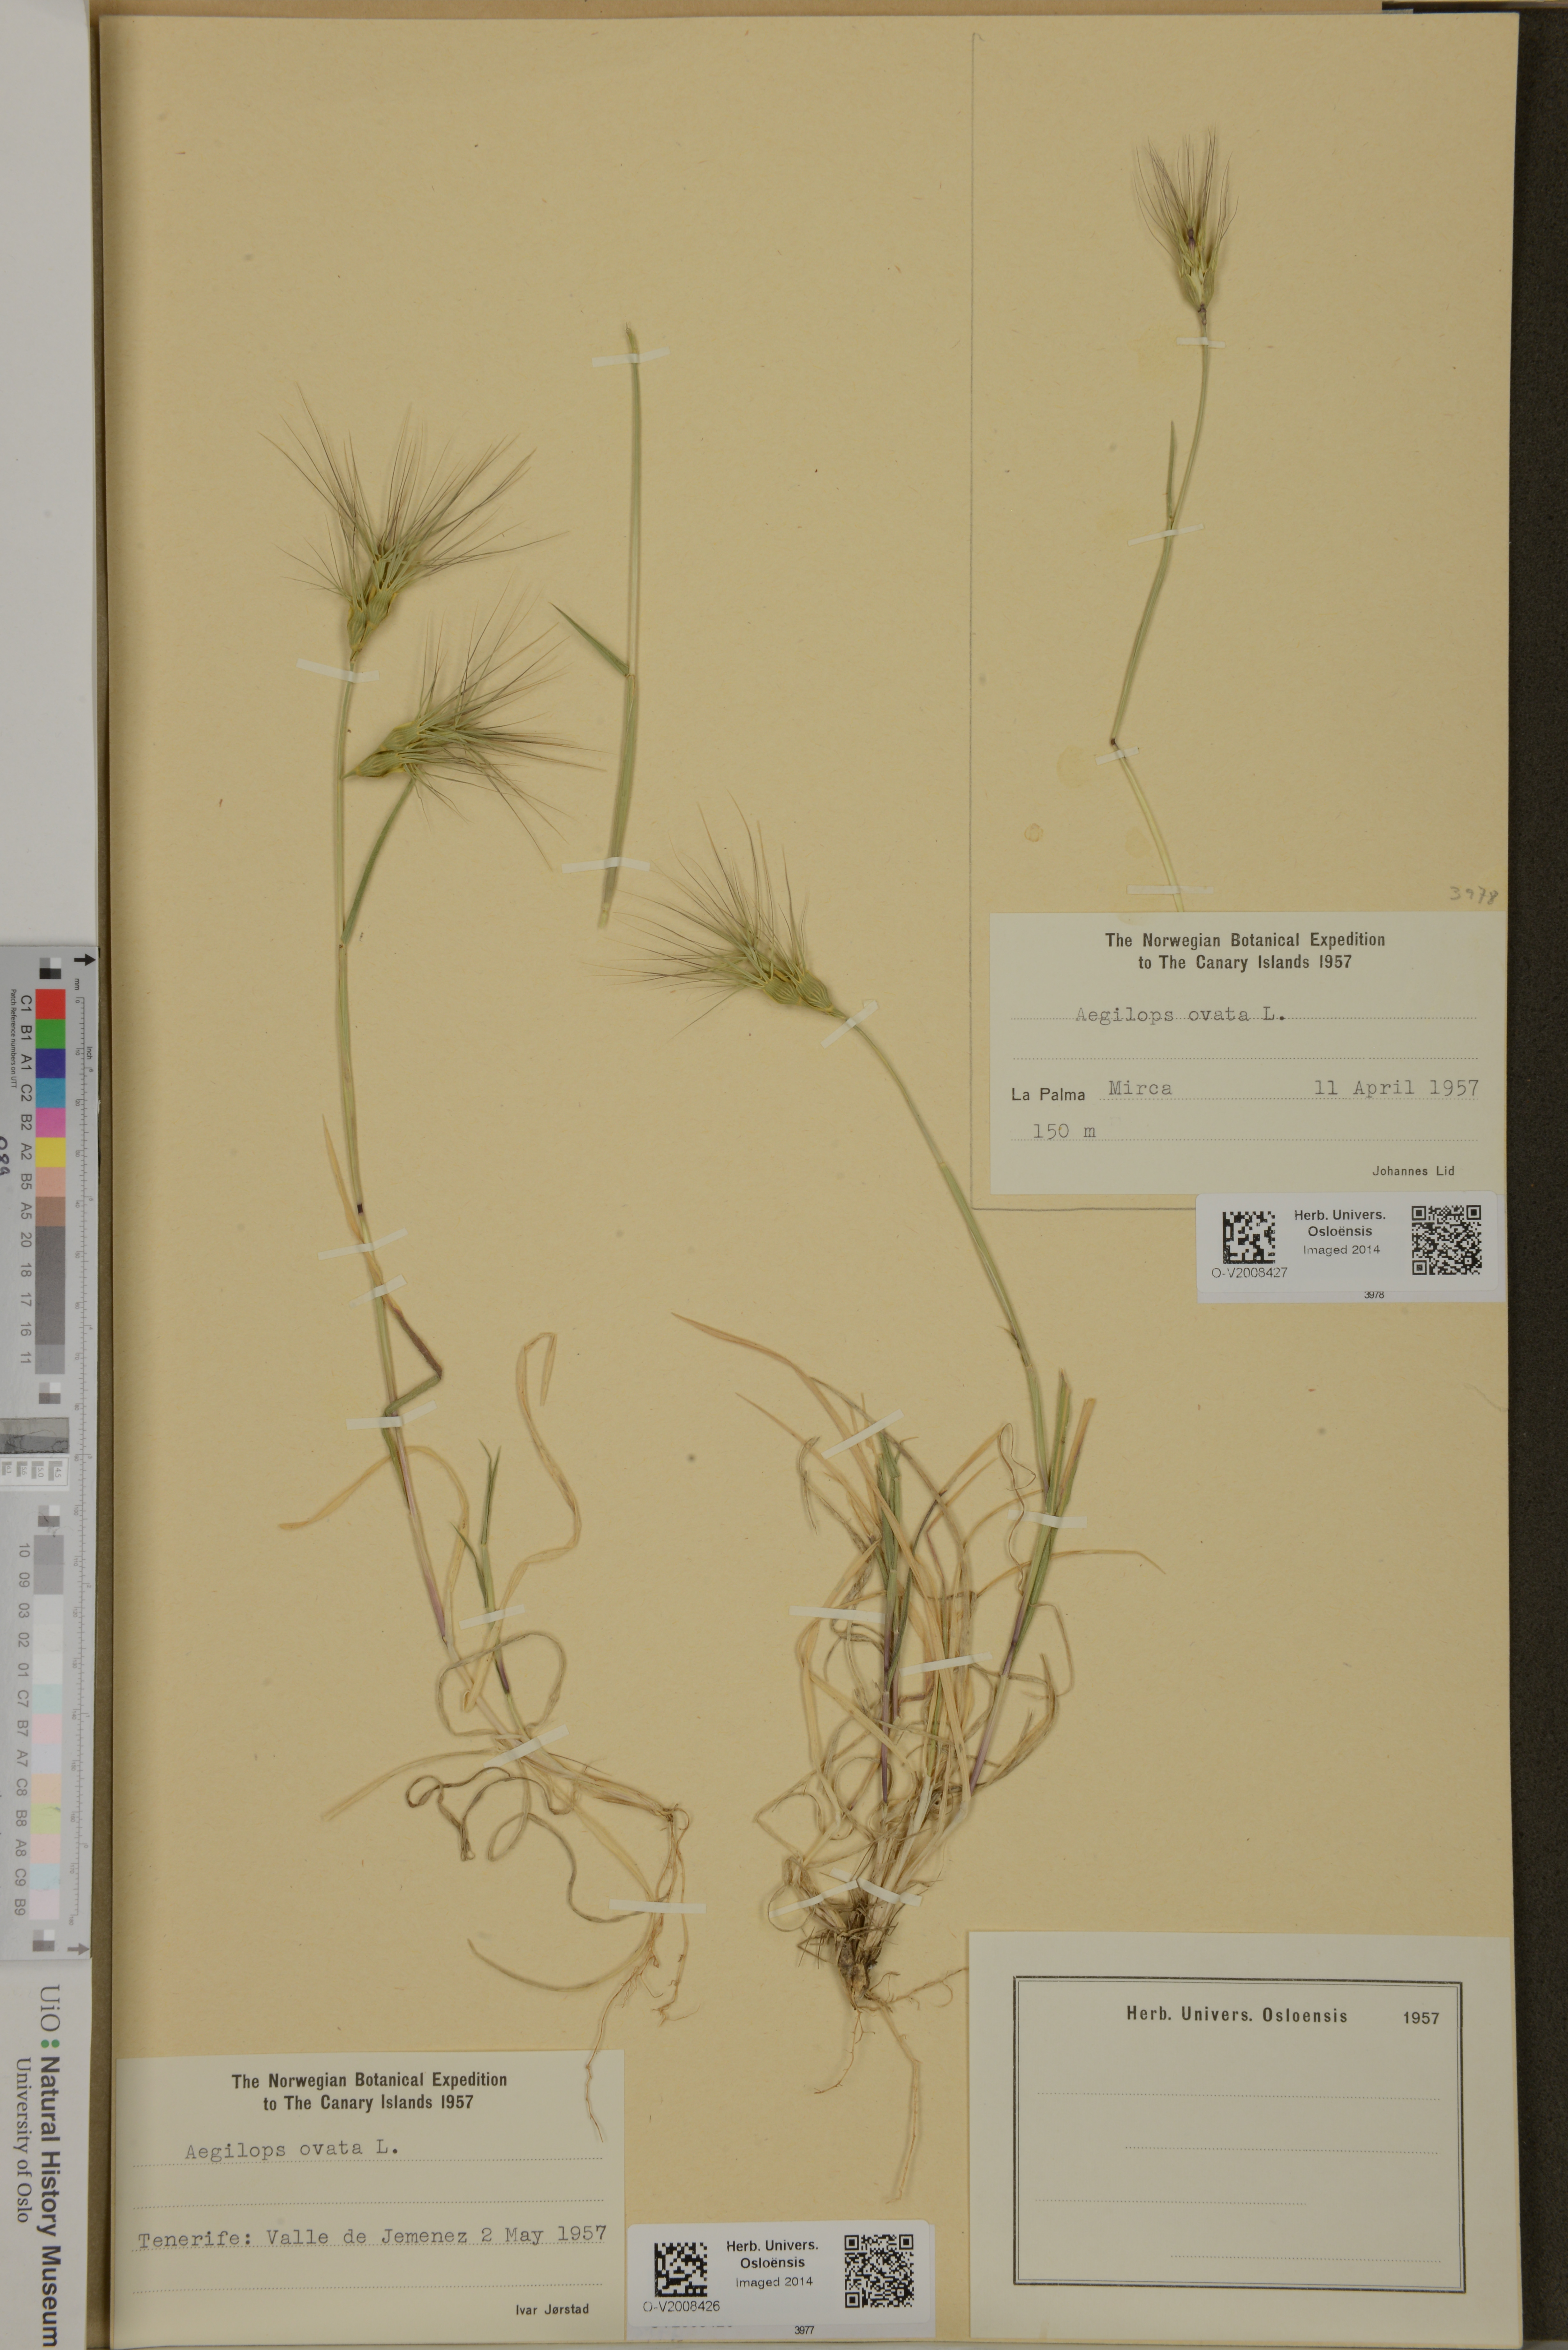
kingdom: Plantae
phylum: Tracheophyta
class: Liliopsida
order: Poales
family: Poaceae
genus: Aegilops
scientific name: Aegilops neglecta
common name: Three-awn goat grass
